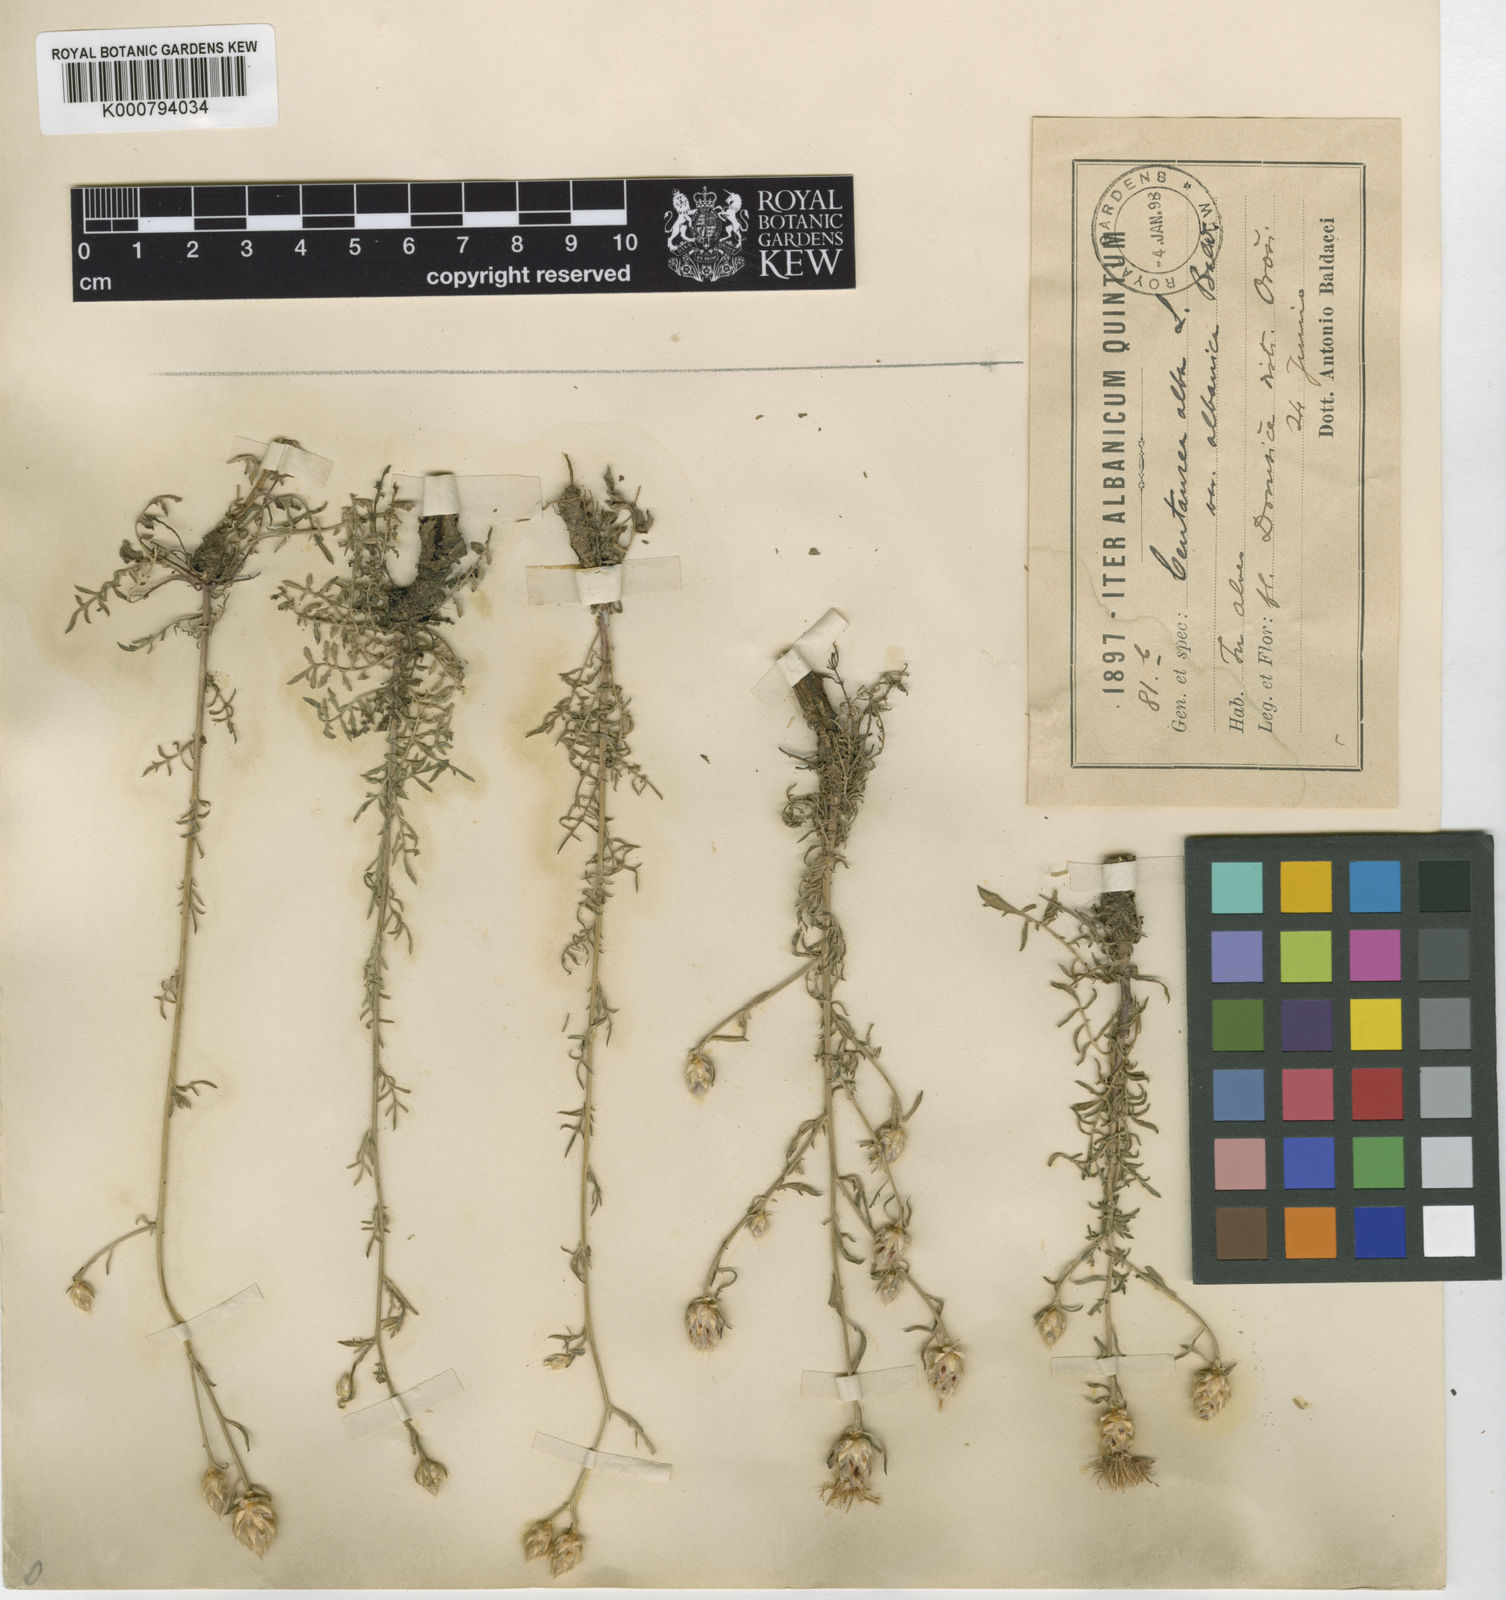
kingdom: Plantae
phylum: Tracheophyta
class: Magnoliopsida
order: Asterales
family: Asteraceae
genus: Centaurea
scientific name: Centaurea alba
